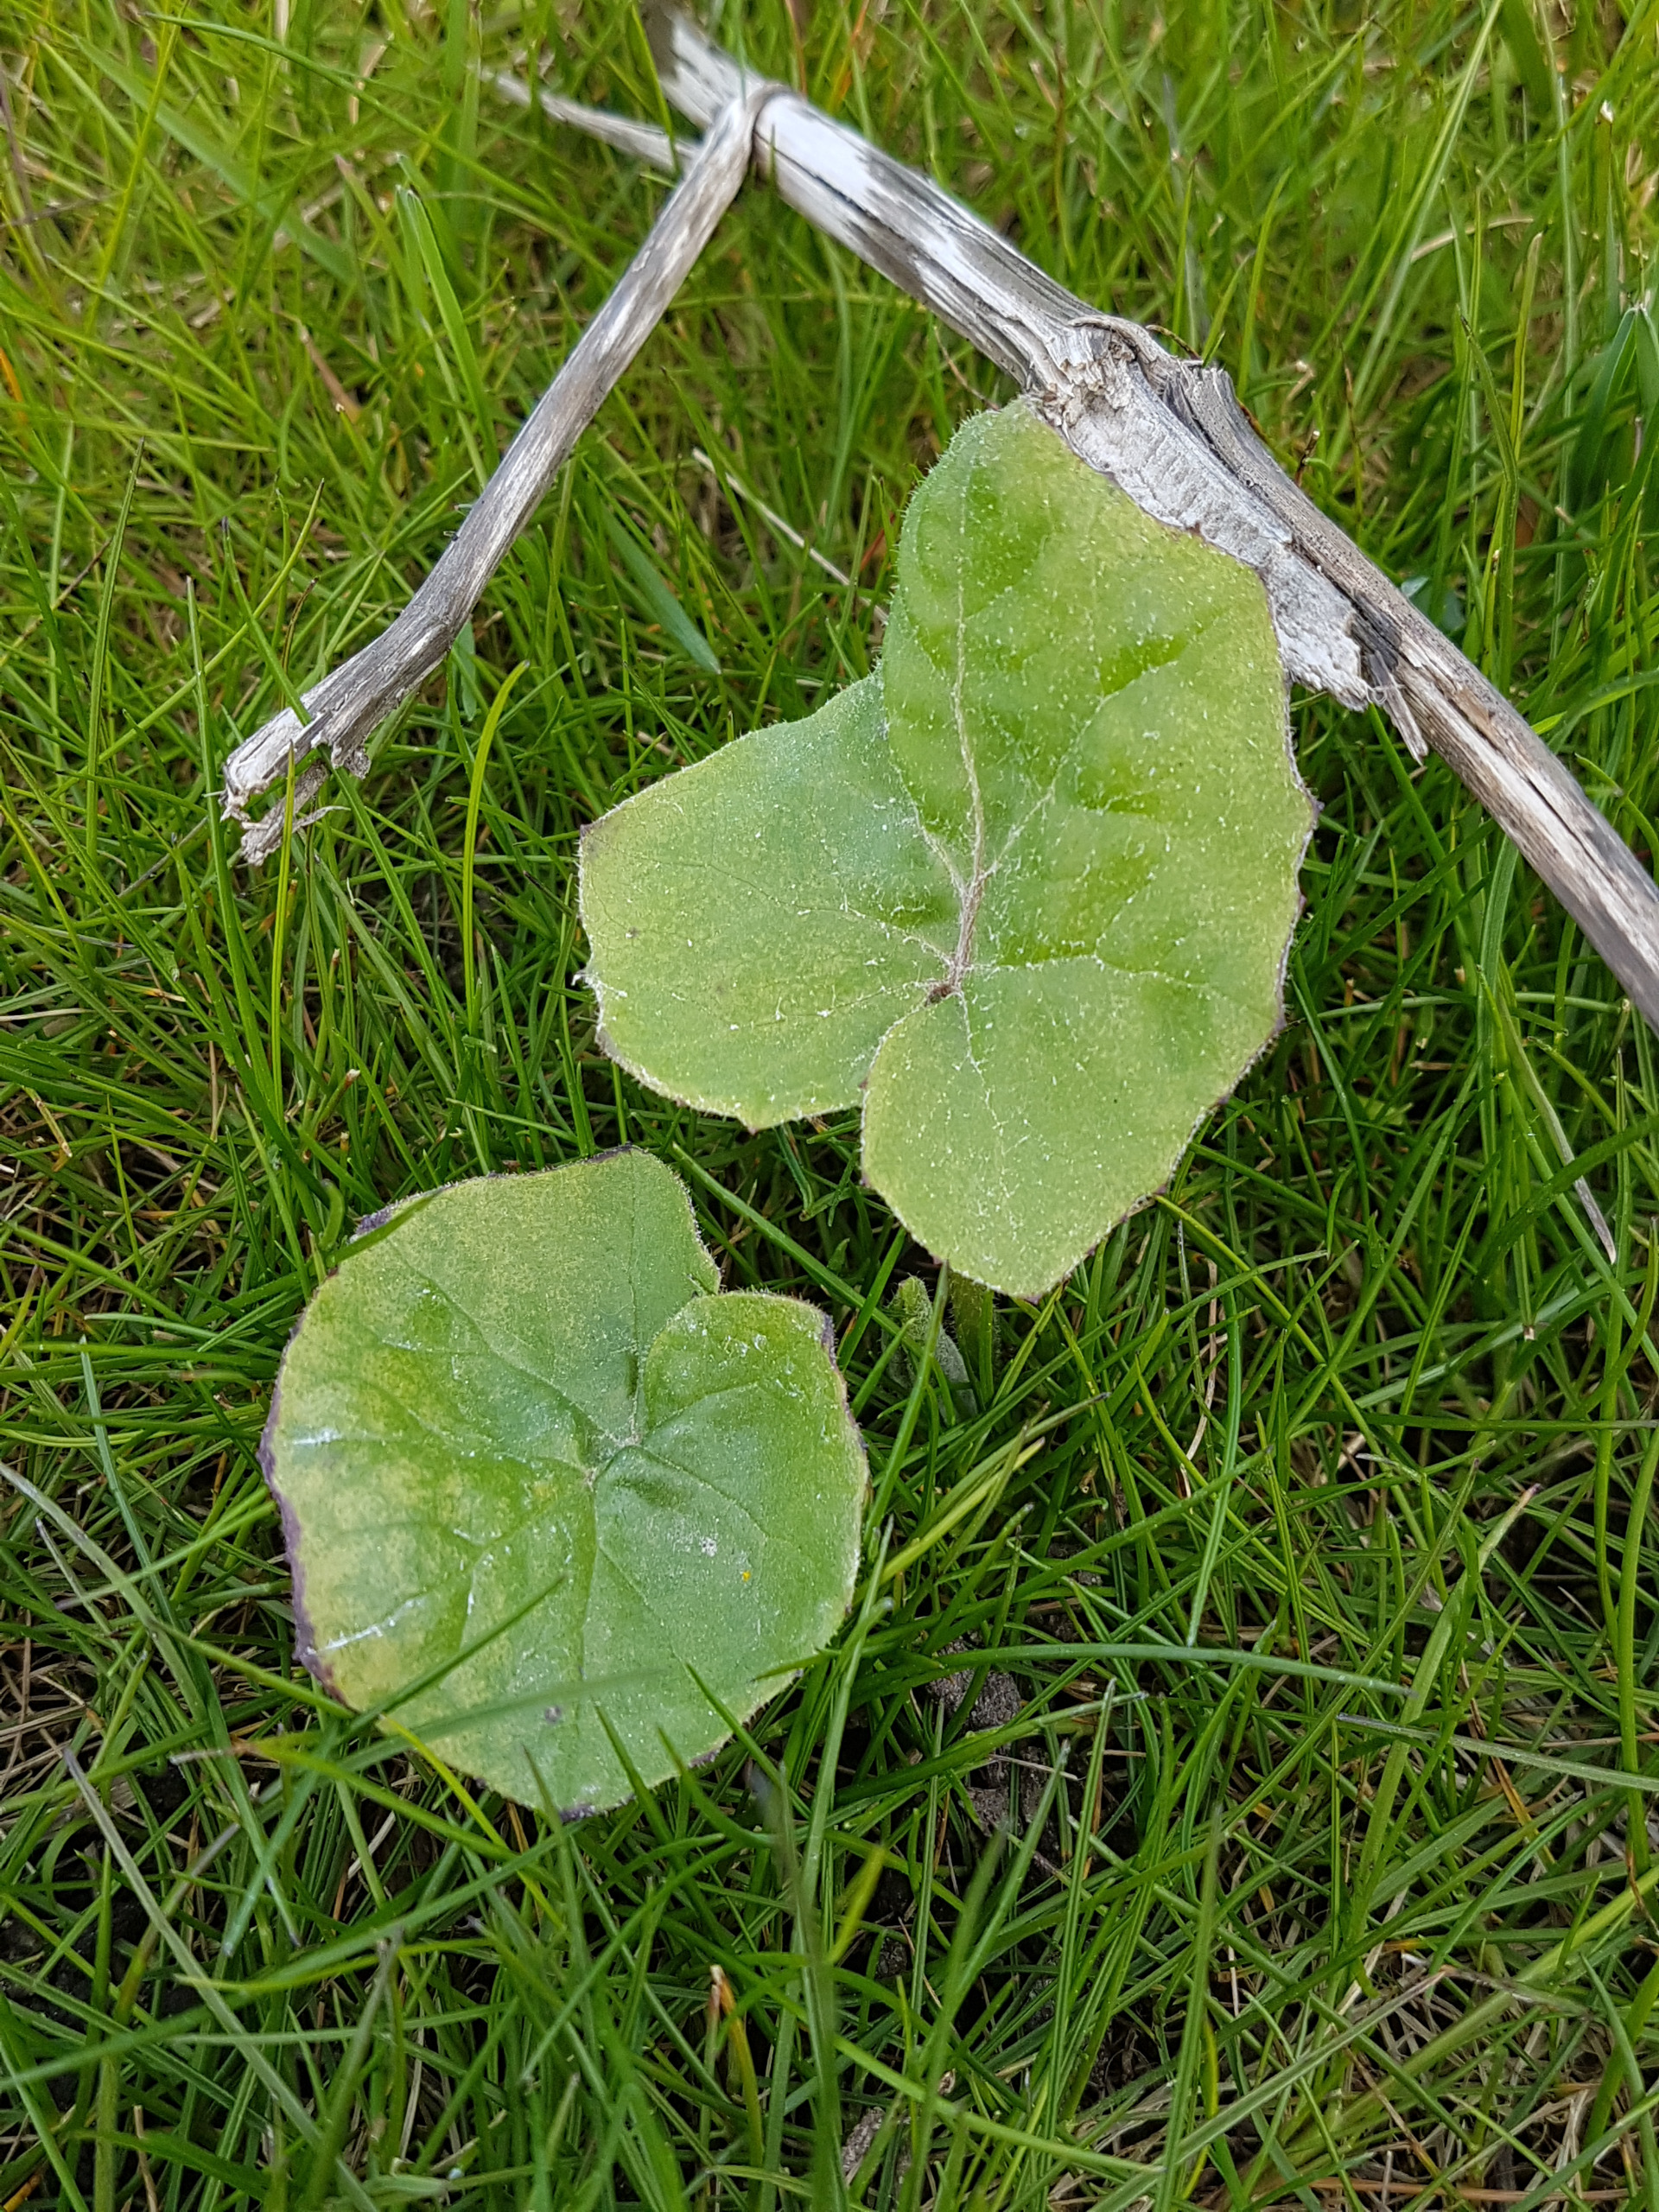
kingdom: Plantae
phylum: Tracheophyta
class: Magnoliopsida
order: Asterales
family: Asteraceae
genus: Tussilago
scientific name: Tussilago farfara
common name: Følfod
